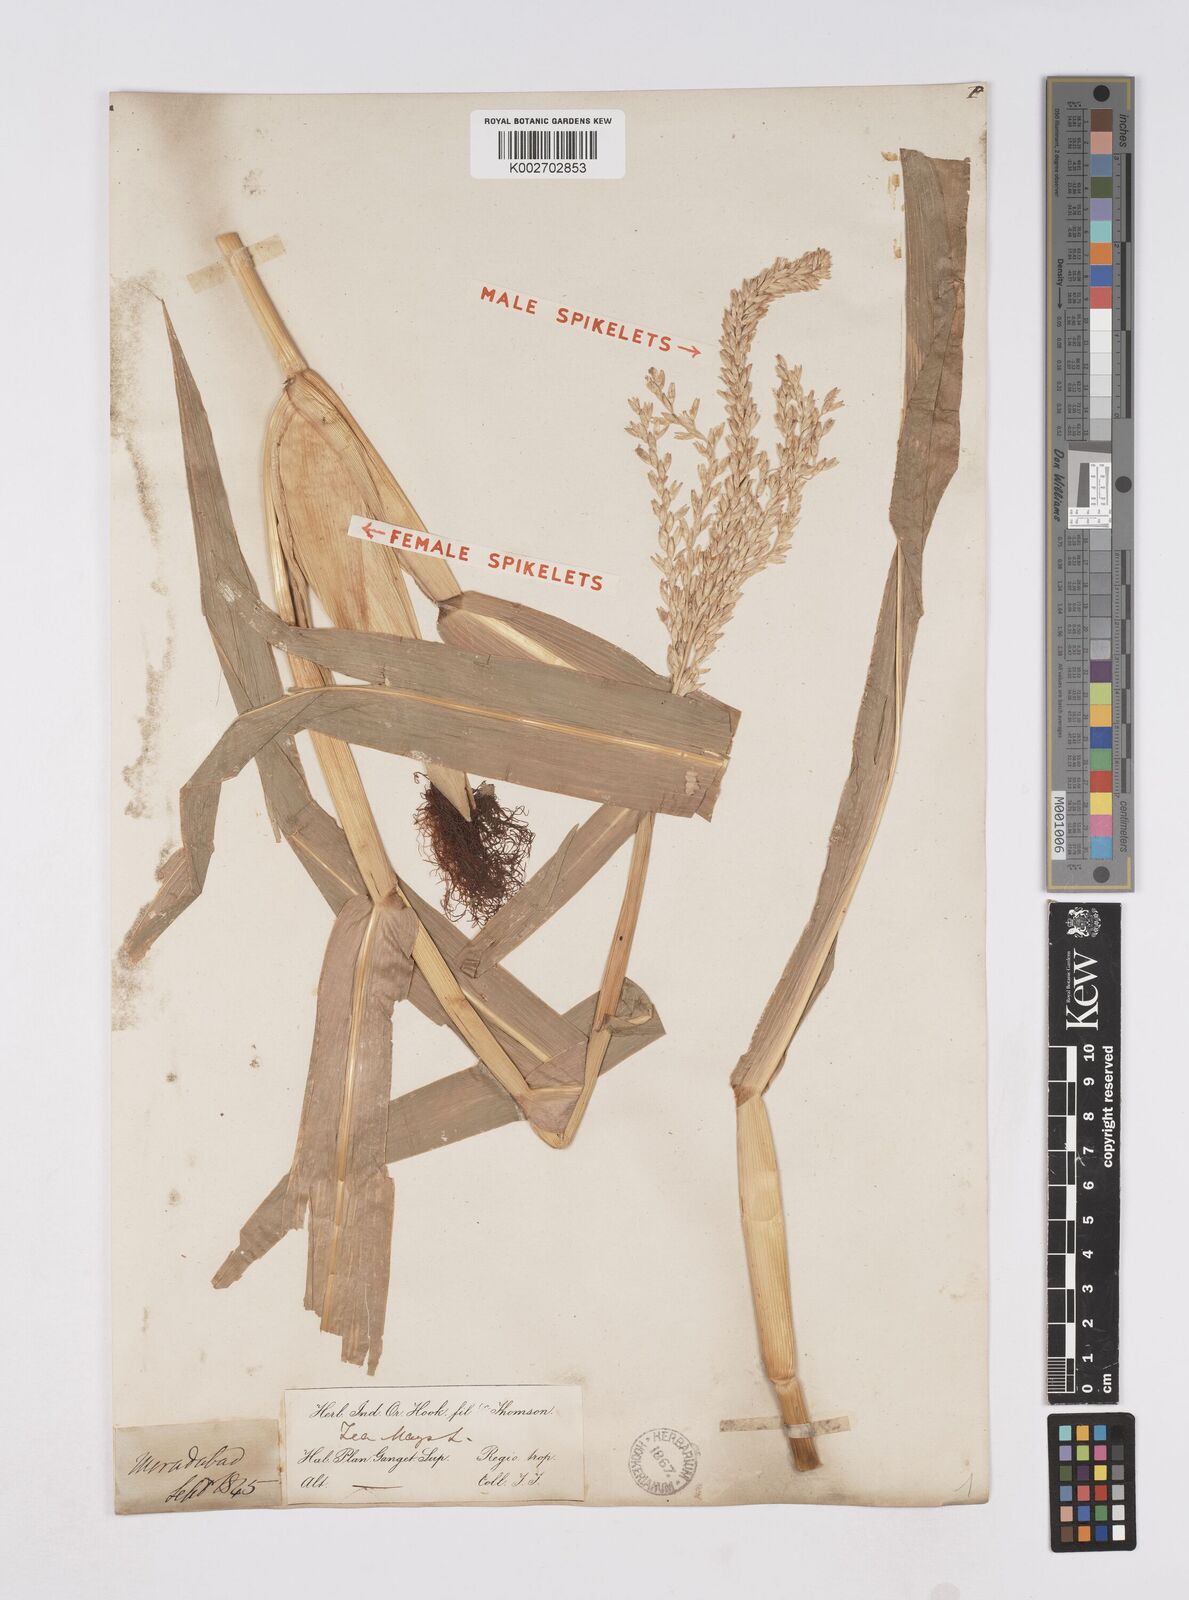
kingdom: Plantae
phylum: Tracheophyta
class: Liliopsida
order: Poales
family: Poaceae
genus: Zea
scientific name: Zea mays
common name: Maize
